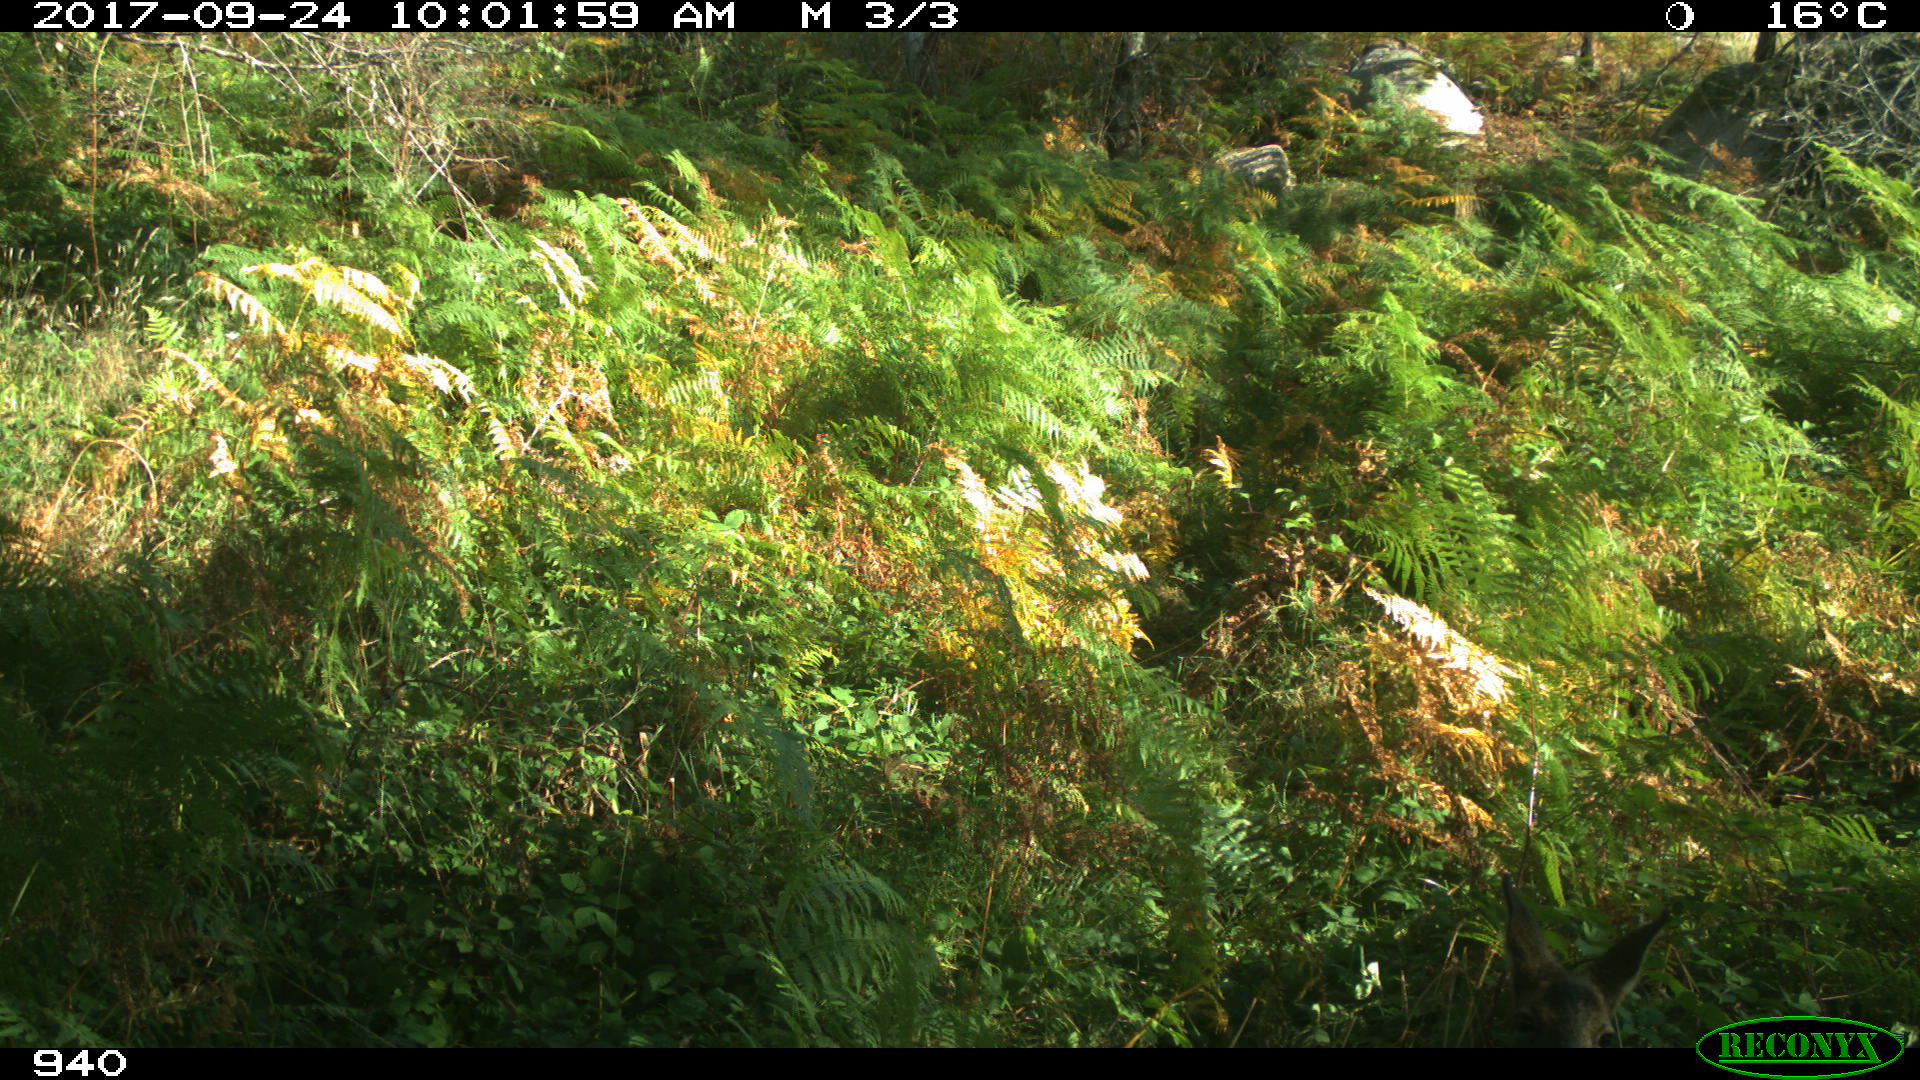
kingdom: Animalia
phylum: Chordata
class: Mammalia
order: Artiodactyla
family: Cervidae
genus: Capreolus
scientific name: Capreolus capreolus
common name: Western roe deer
